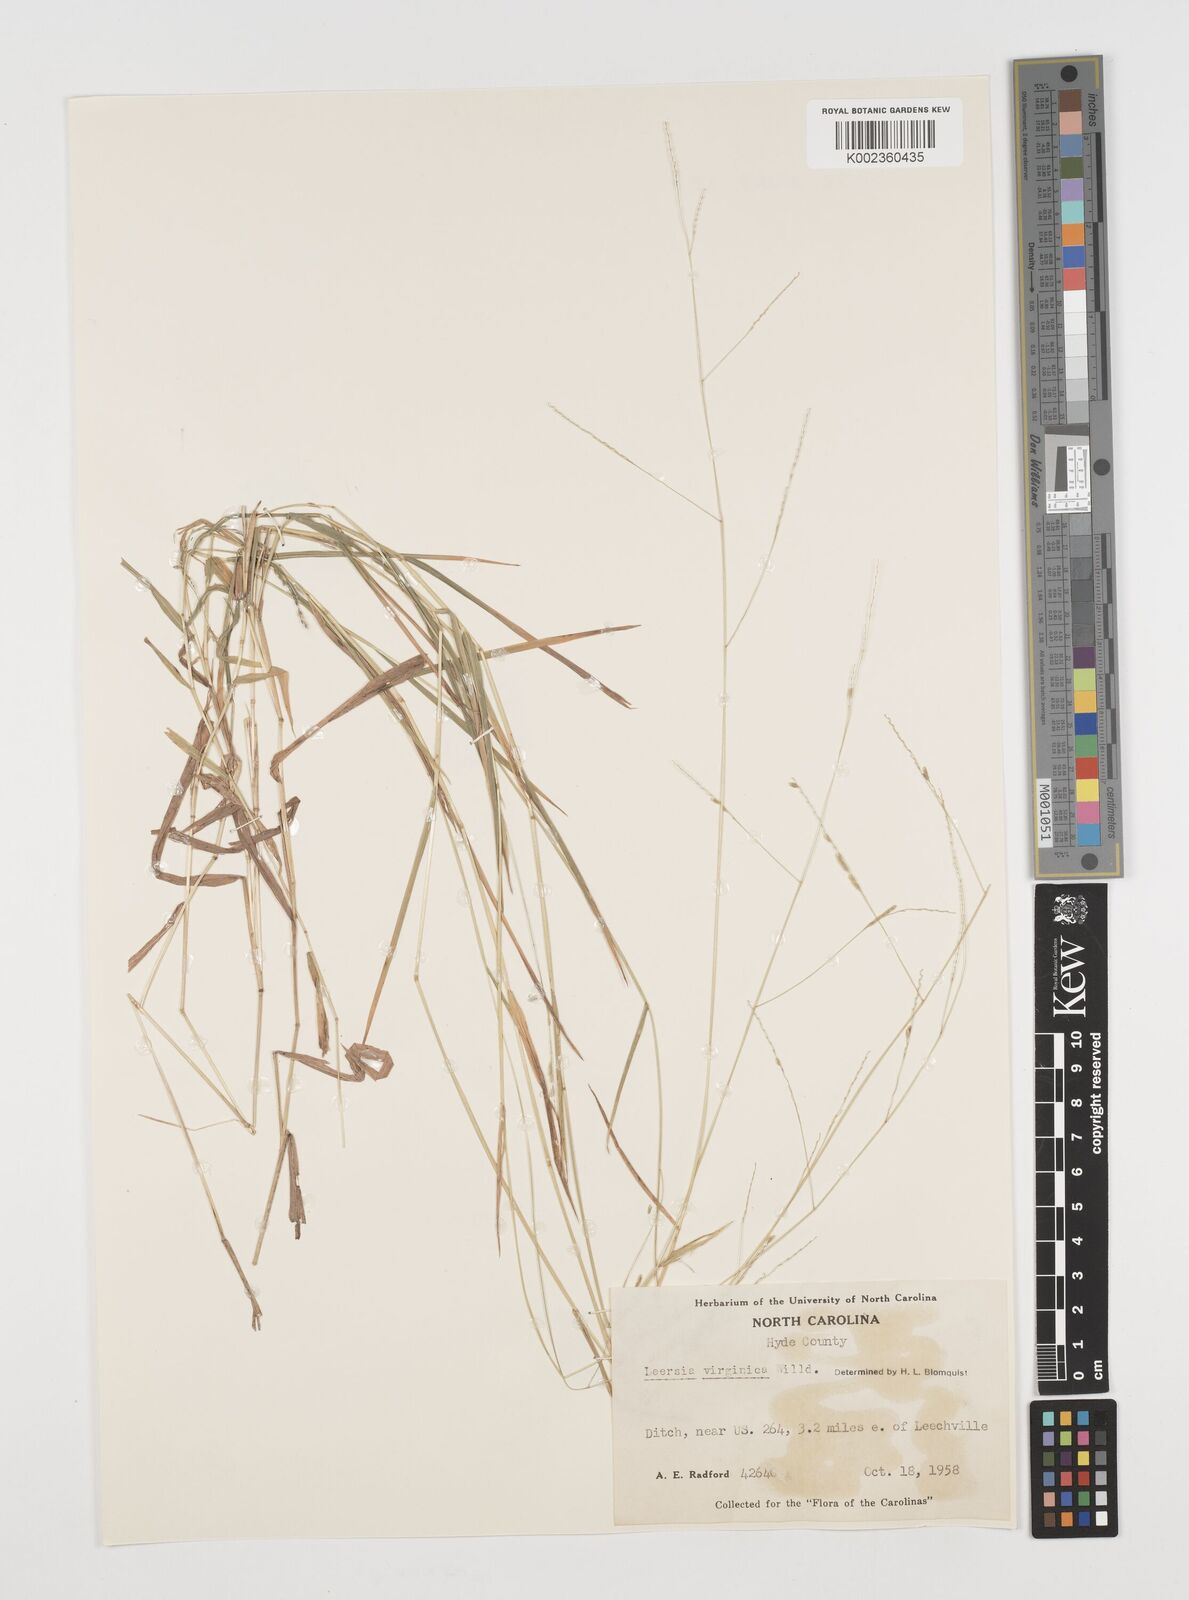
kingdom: Plantae
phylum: Tracheophyta
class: Liliopsida
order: Poales
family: Poaceae
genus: Leersia
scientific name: Leersia virginica
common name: White cutgrass
